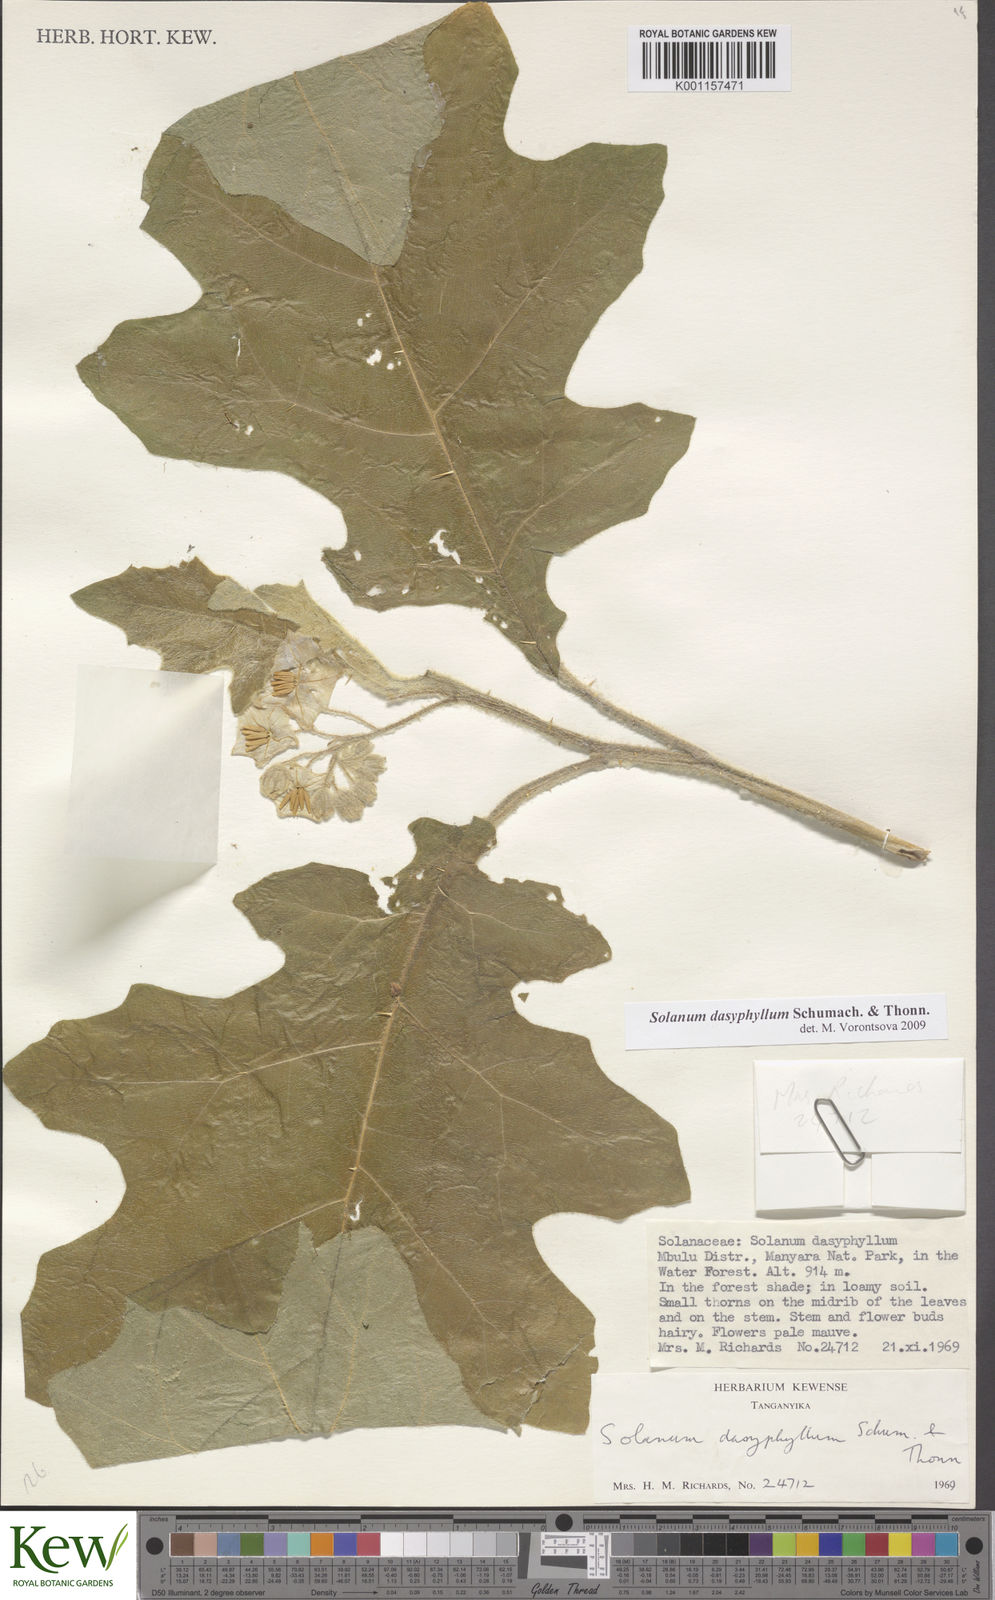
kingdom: Plantae
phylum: Tracheophyta
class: Magnoliopsida
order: Solanales
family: Solanaceae
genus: Solanum
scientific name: Solanum dasyphyllum
